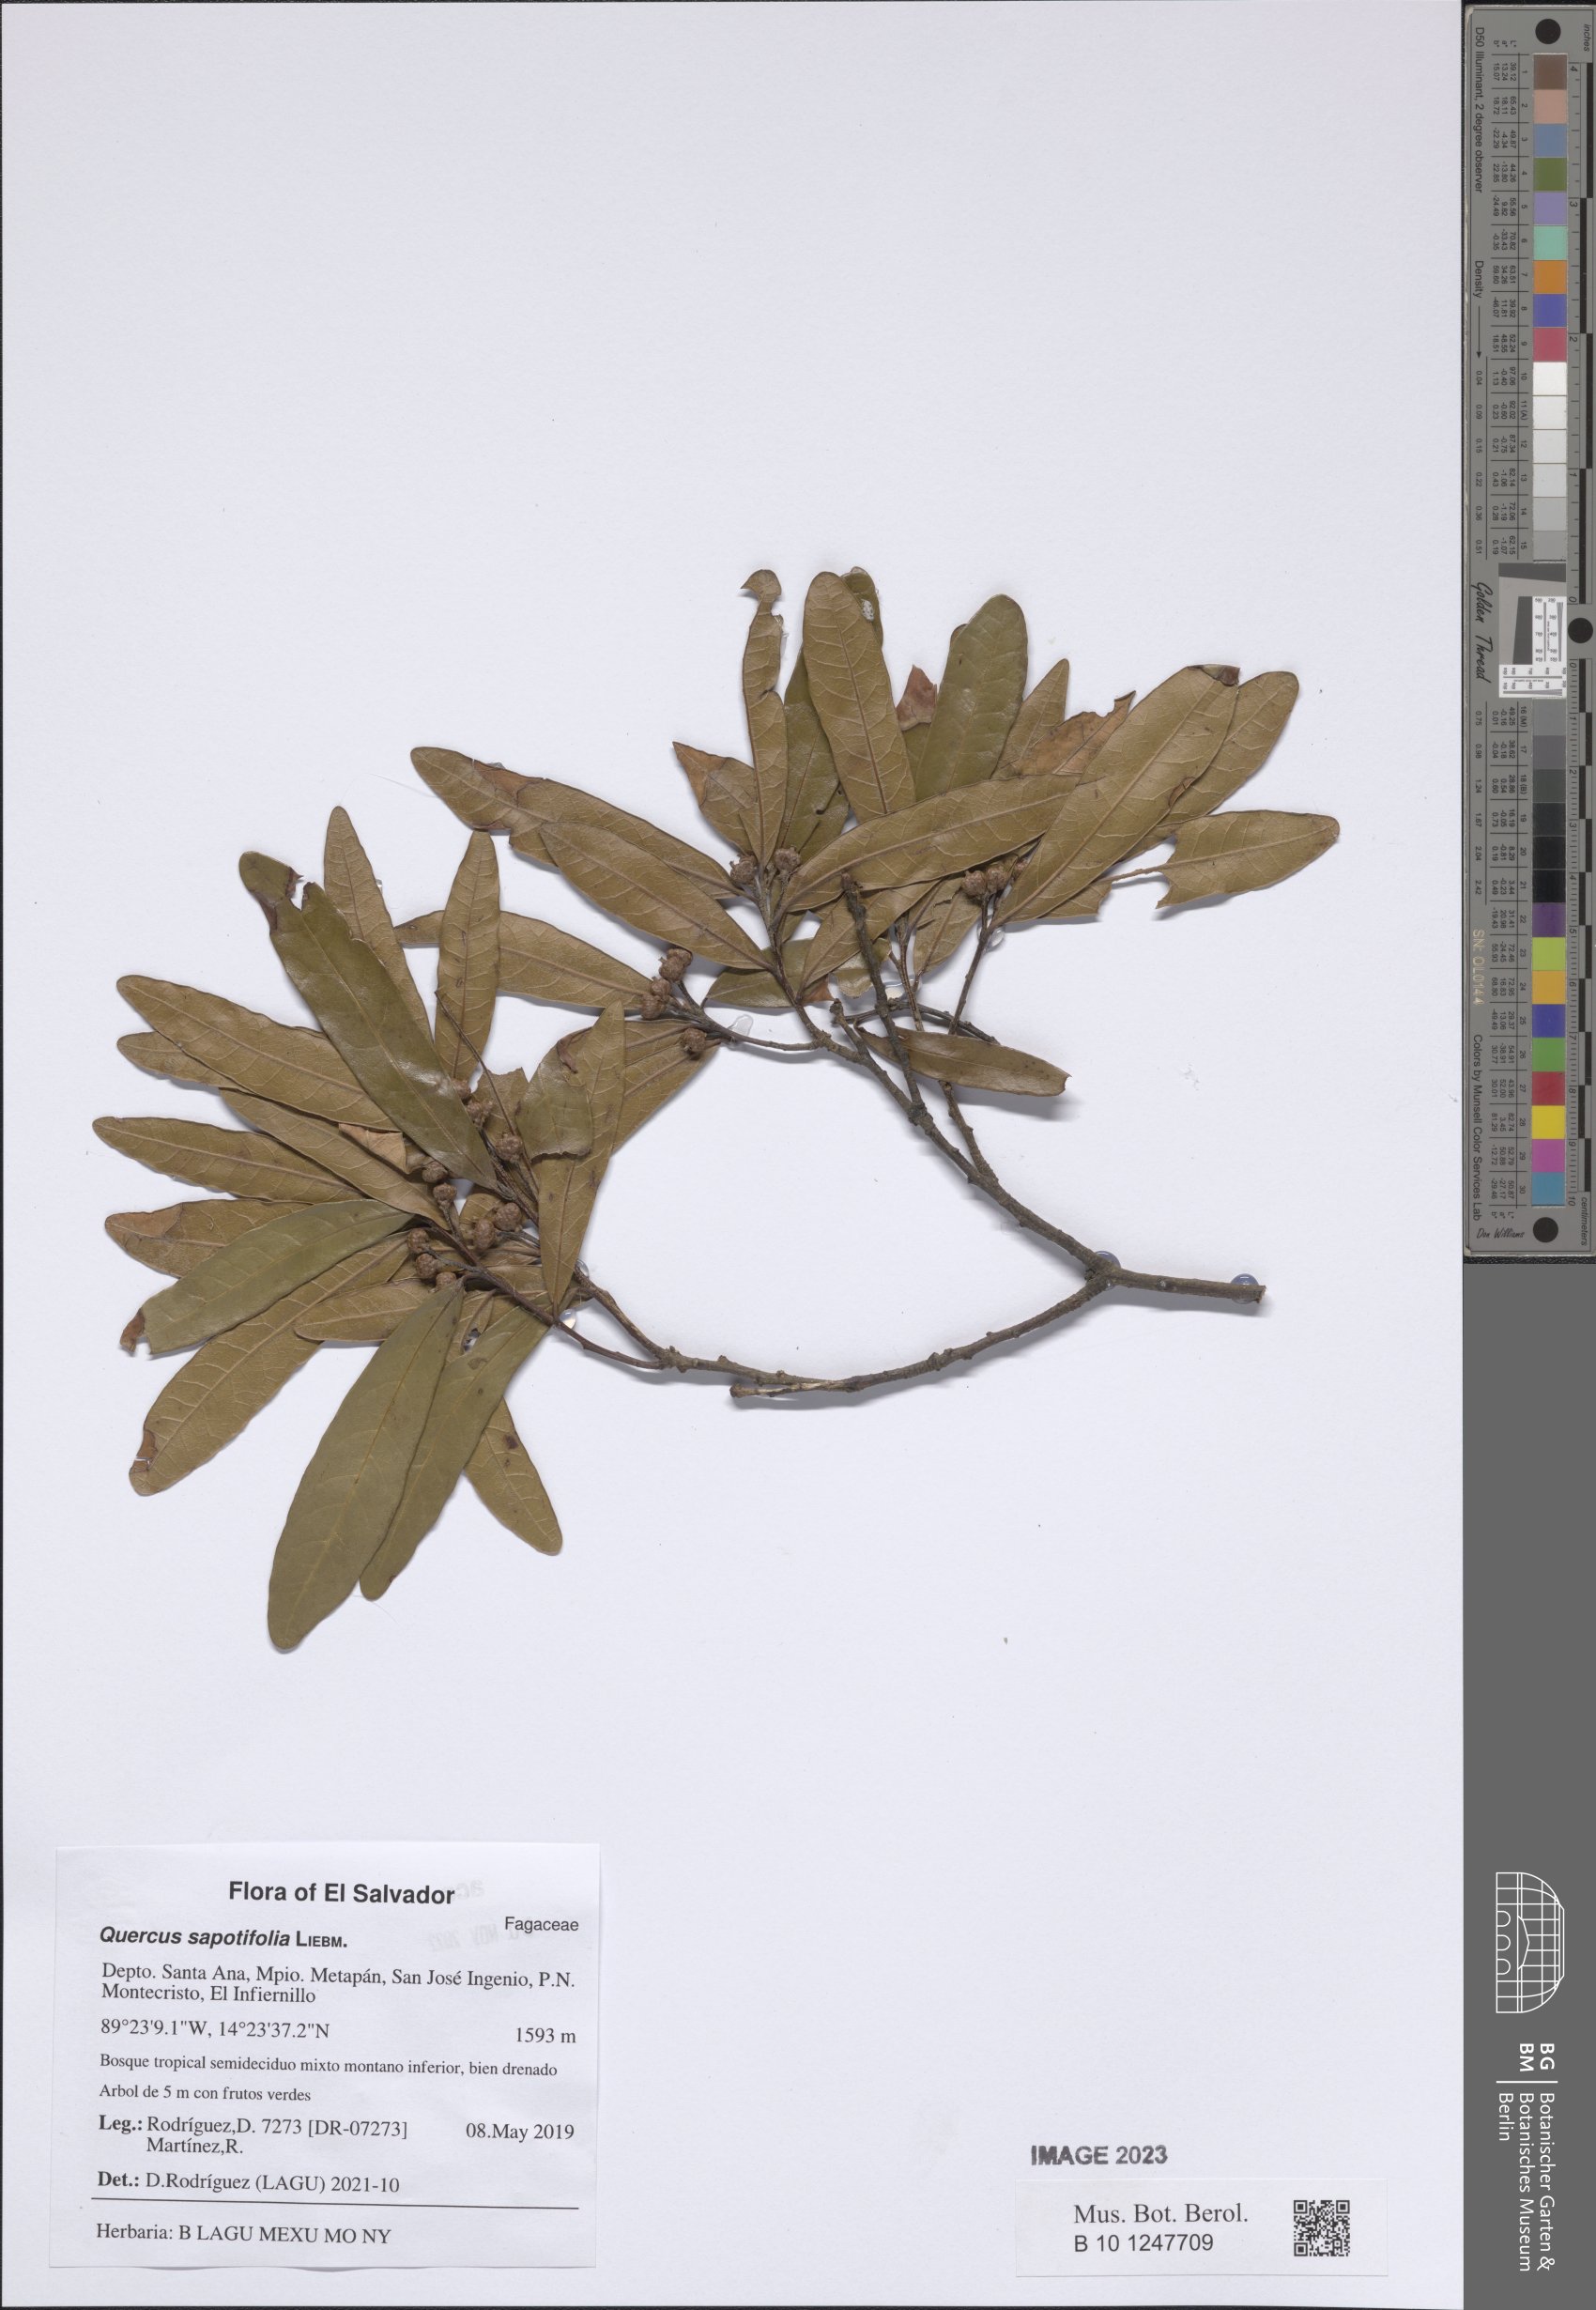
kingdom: Plantae
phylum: Tracheophyta
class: Magnoliopsida
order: Fagales
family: Fagaceae
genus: Quercus
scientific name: Quercus sapotifolia
